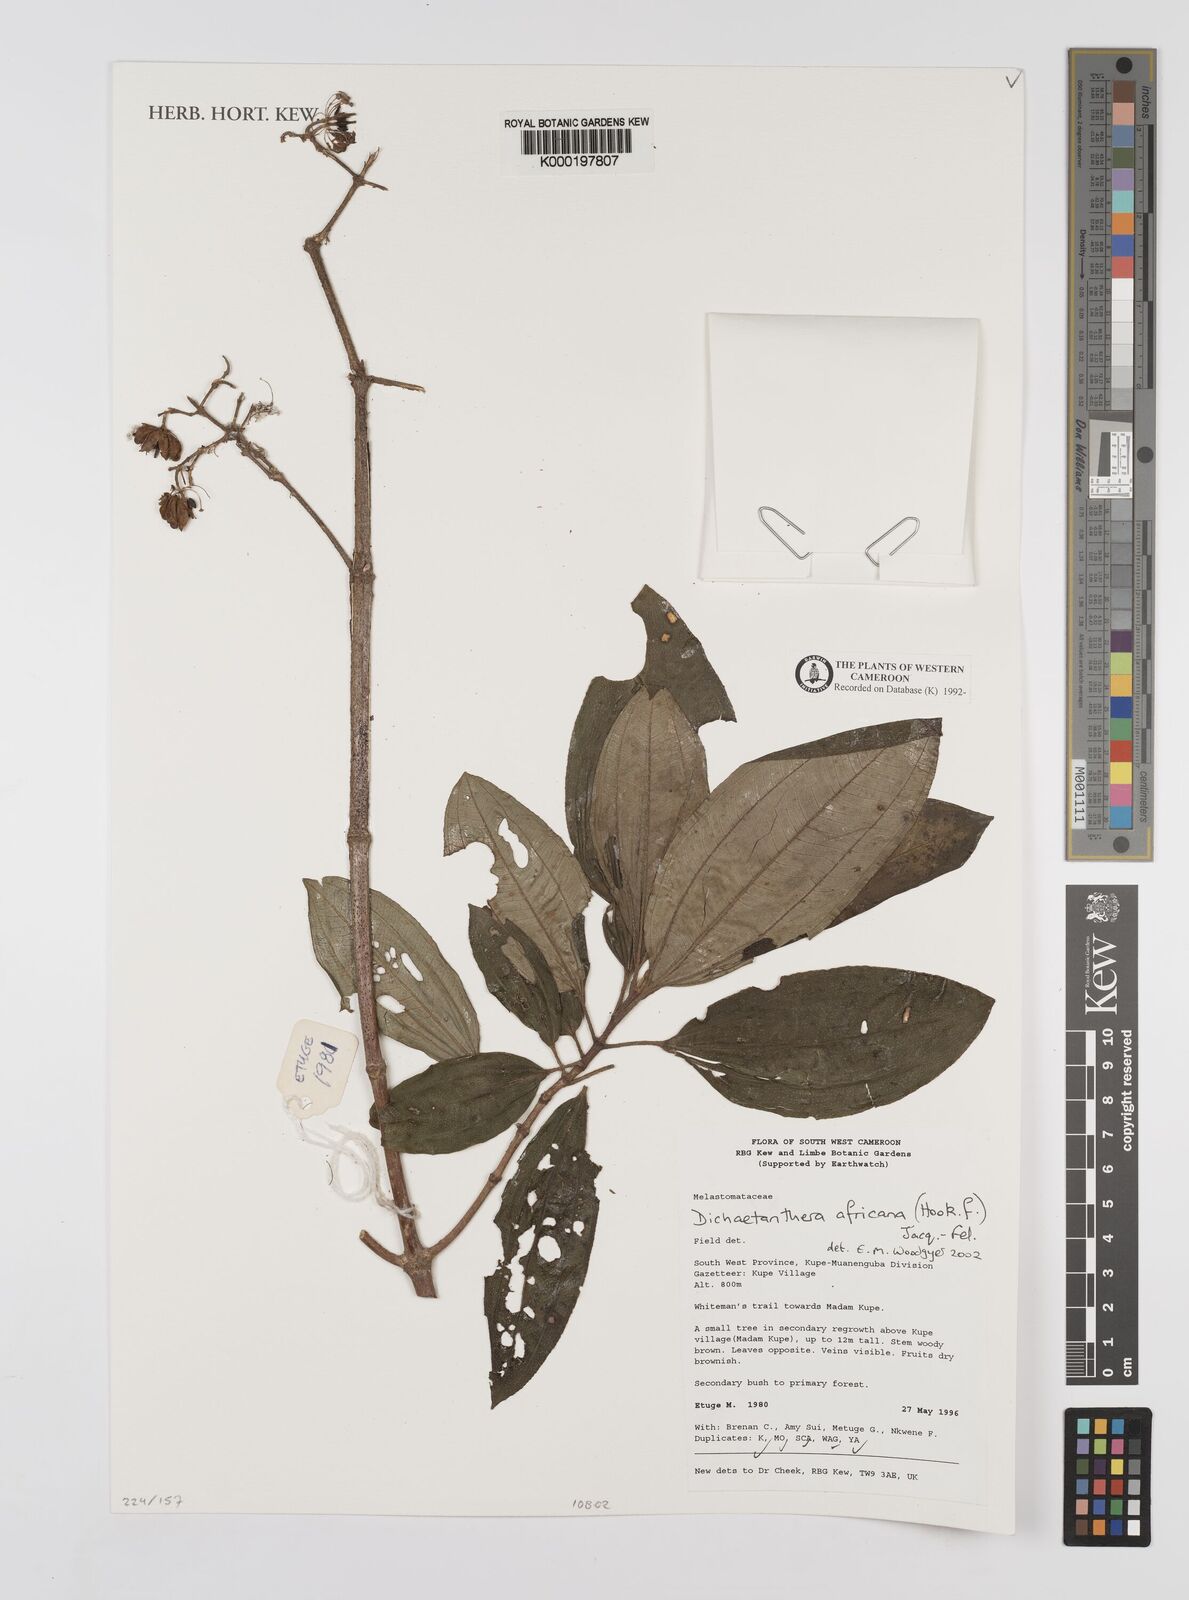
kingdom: Plantae
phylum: Tracheophyta
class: Magnoliopsida
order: Myrtales
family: Melastomataceae
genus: Dichaetanthera
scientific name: Dichaetanthera
